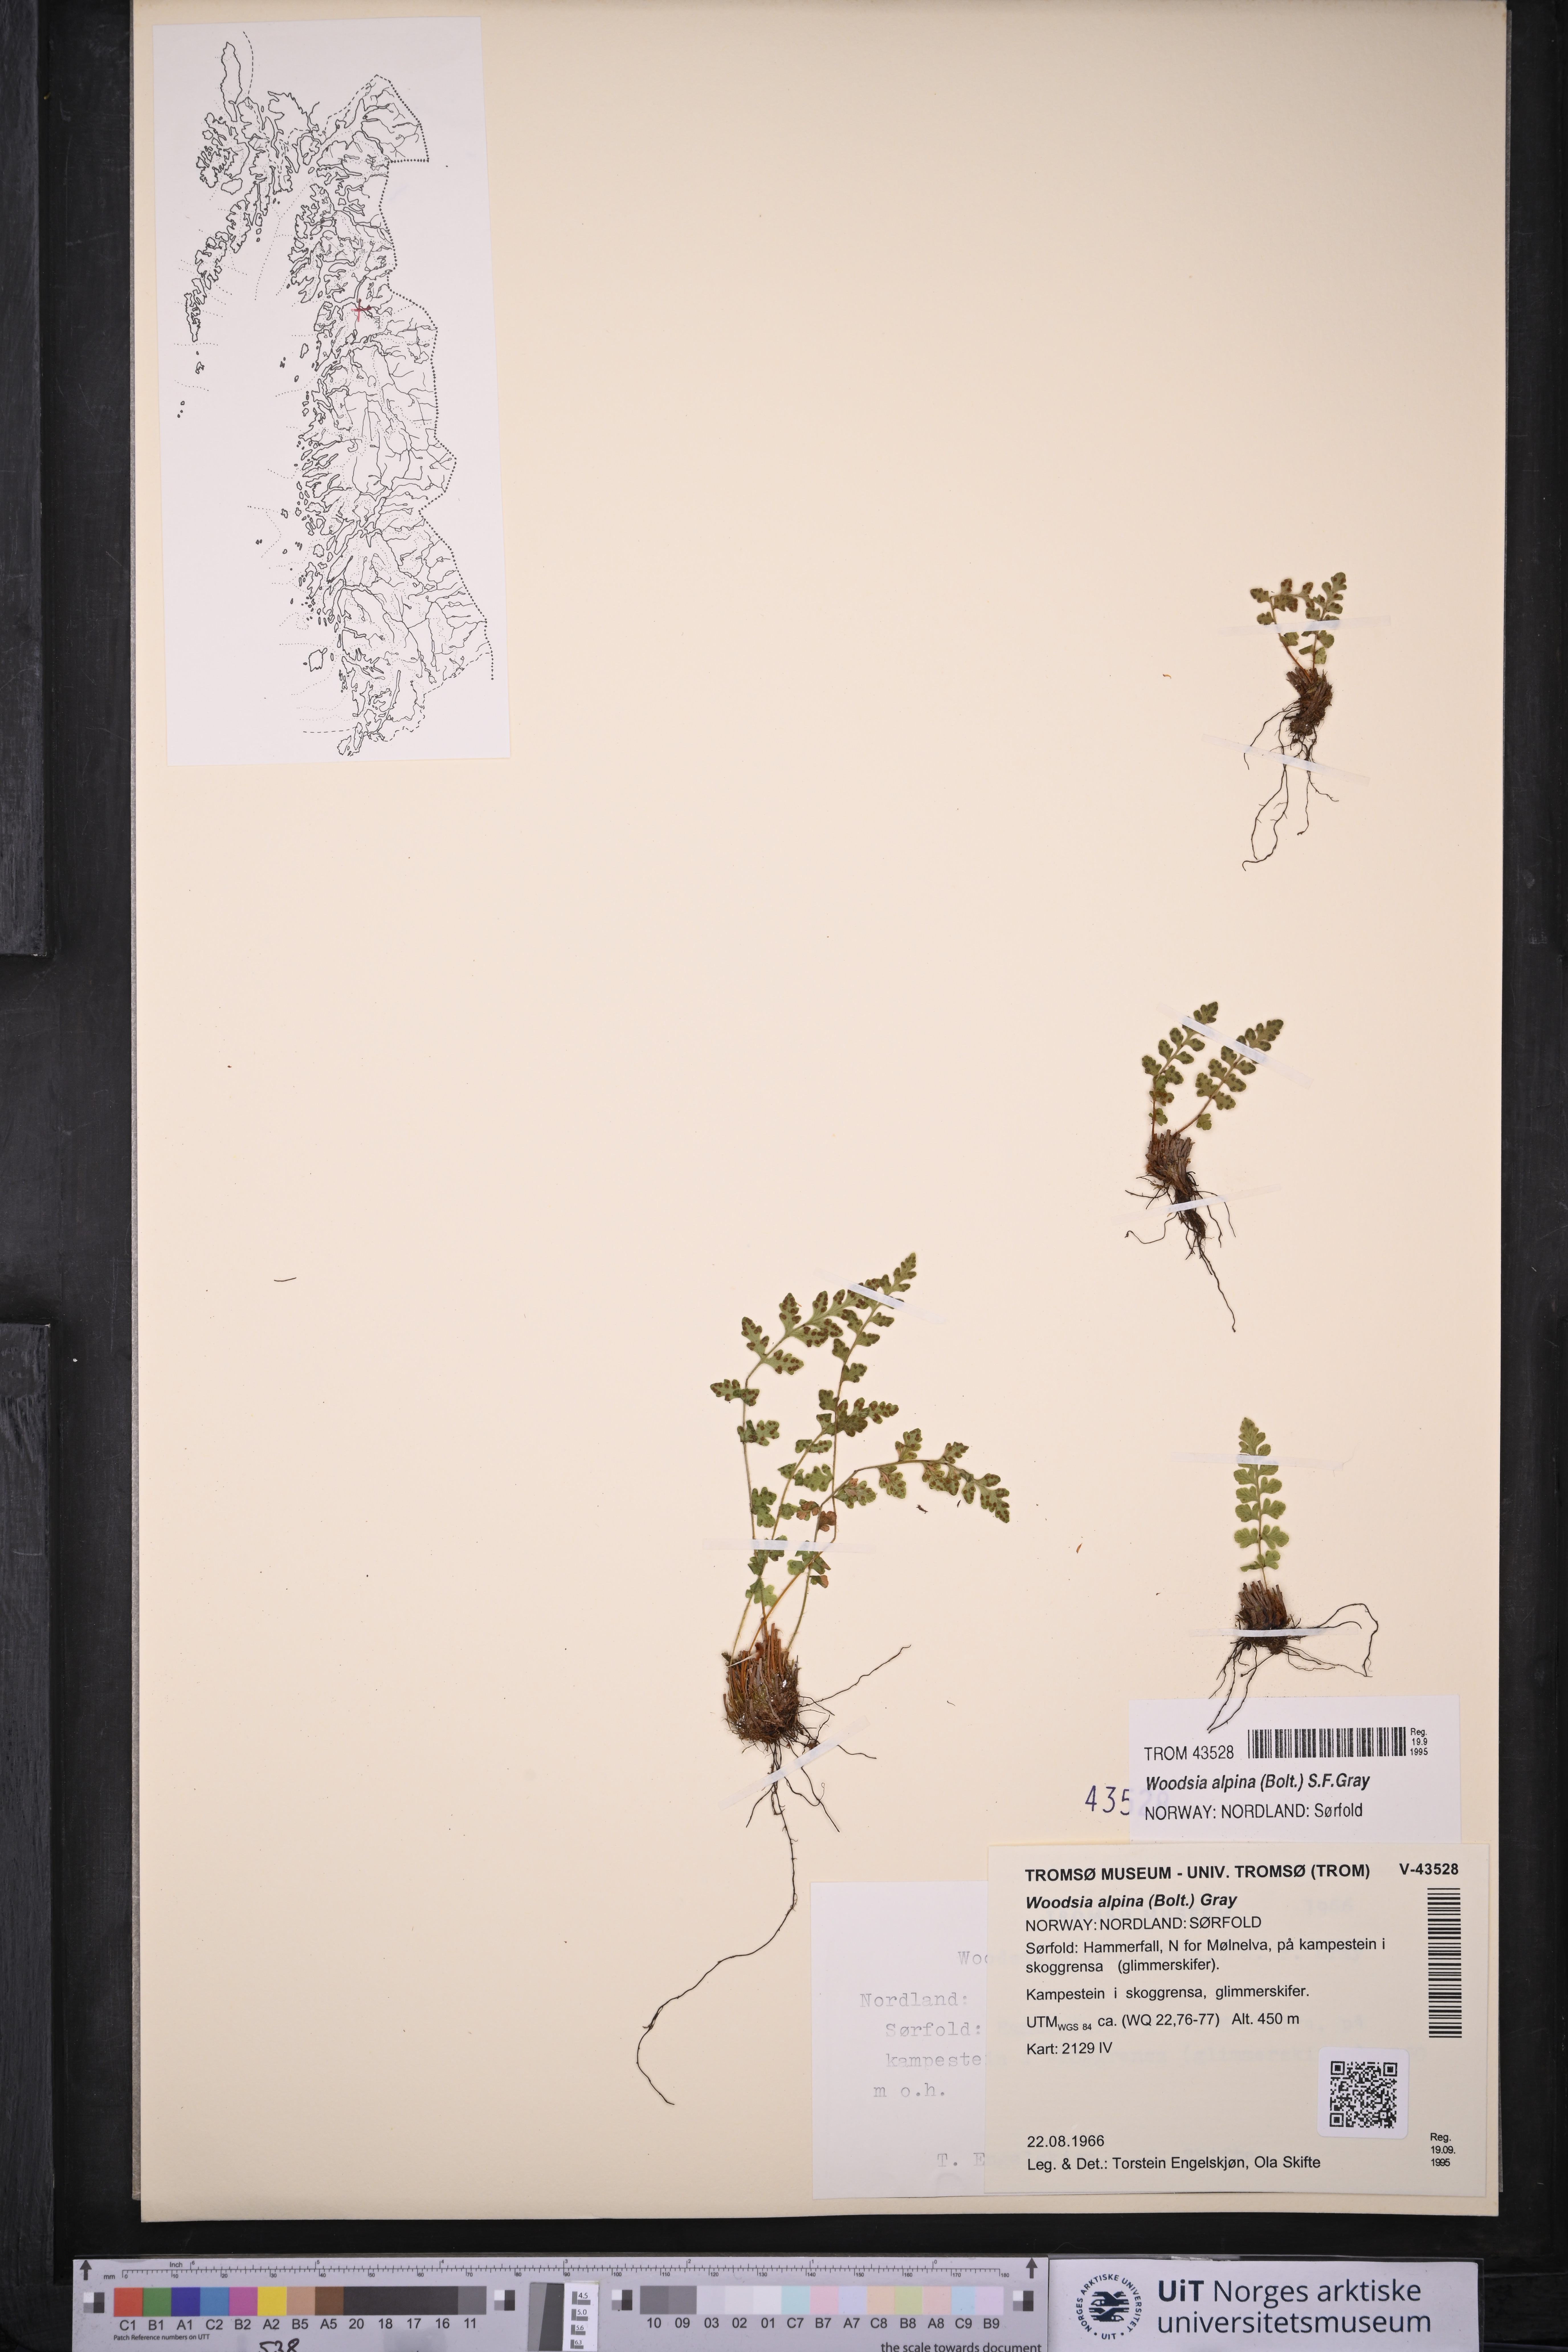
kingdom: Plantae
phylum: Tracheophyta
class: Polypodiopsida
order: Polypodiales
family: Woodsiaceae
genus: Woodsia
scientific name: Woodsia alpina
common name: Alpine woodsia
